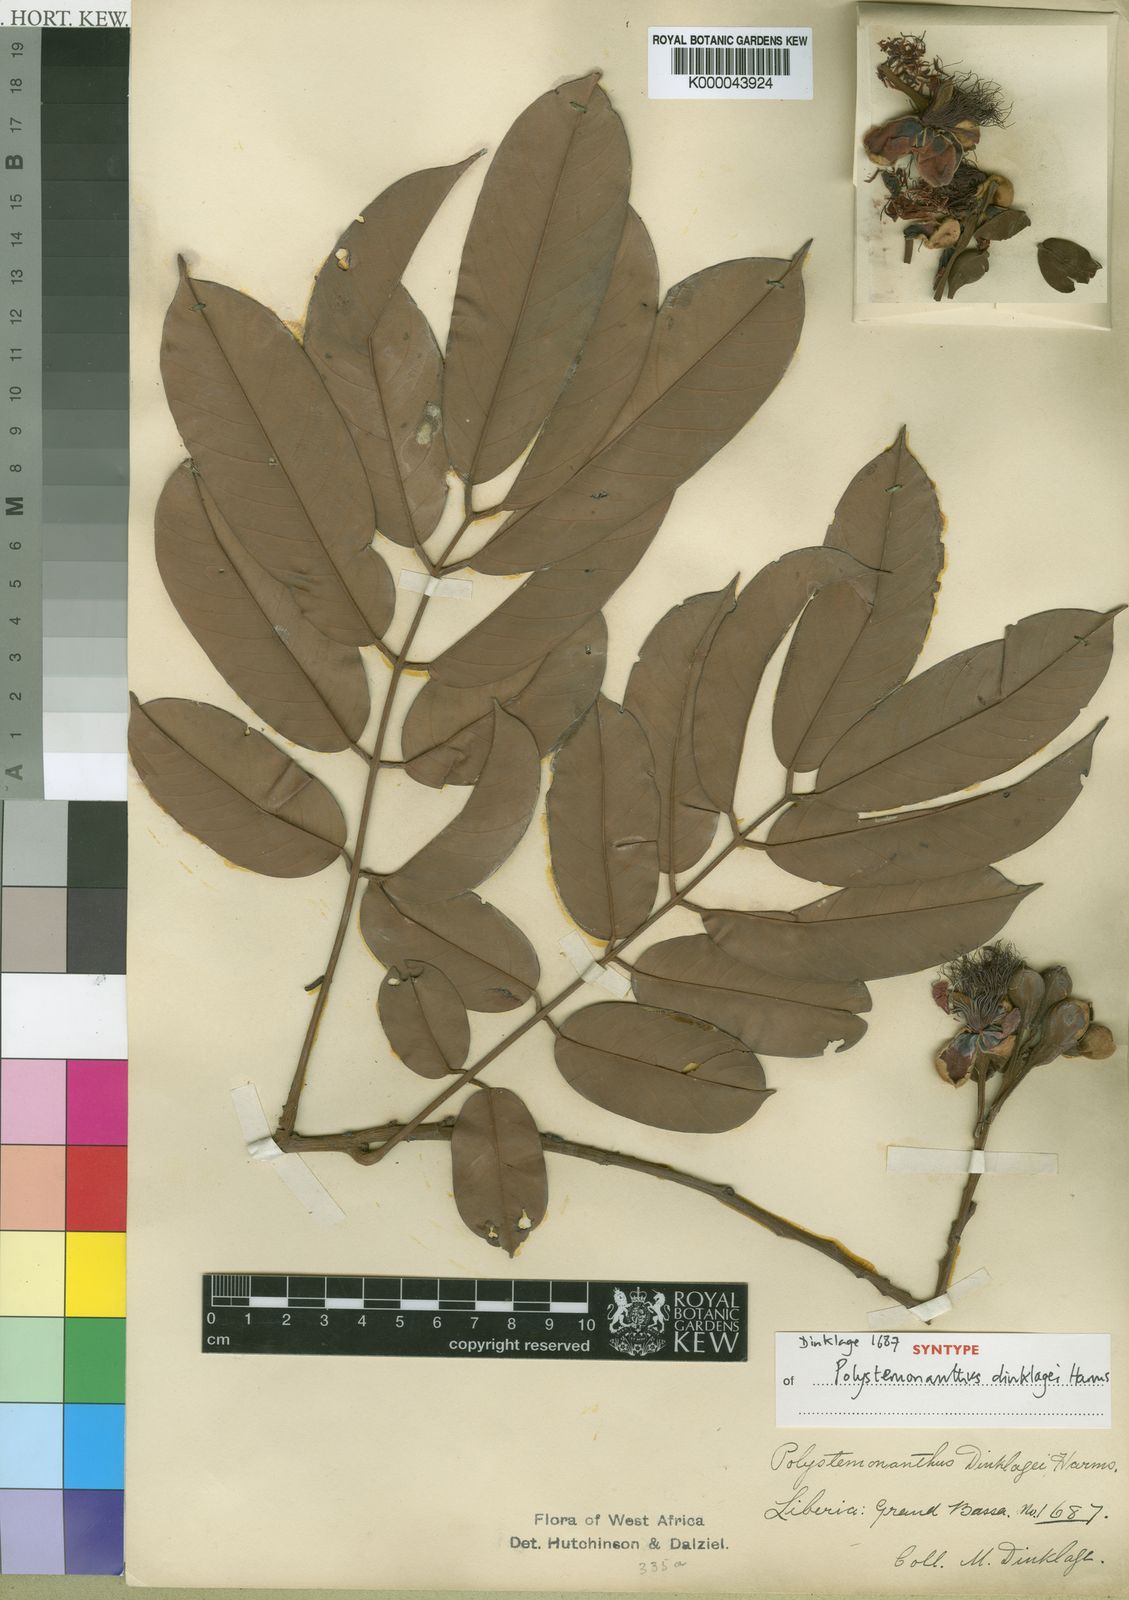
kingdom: Plantae
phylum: Tracheophyta
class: Magnoliopsida
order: Fabales
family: Fabaceae
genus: Polystemonanthus
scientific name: Polystemonanthus dinklagei
